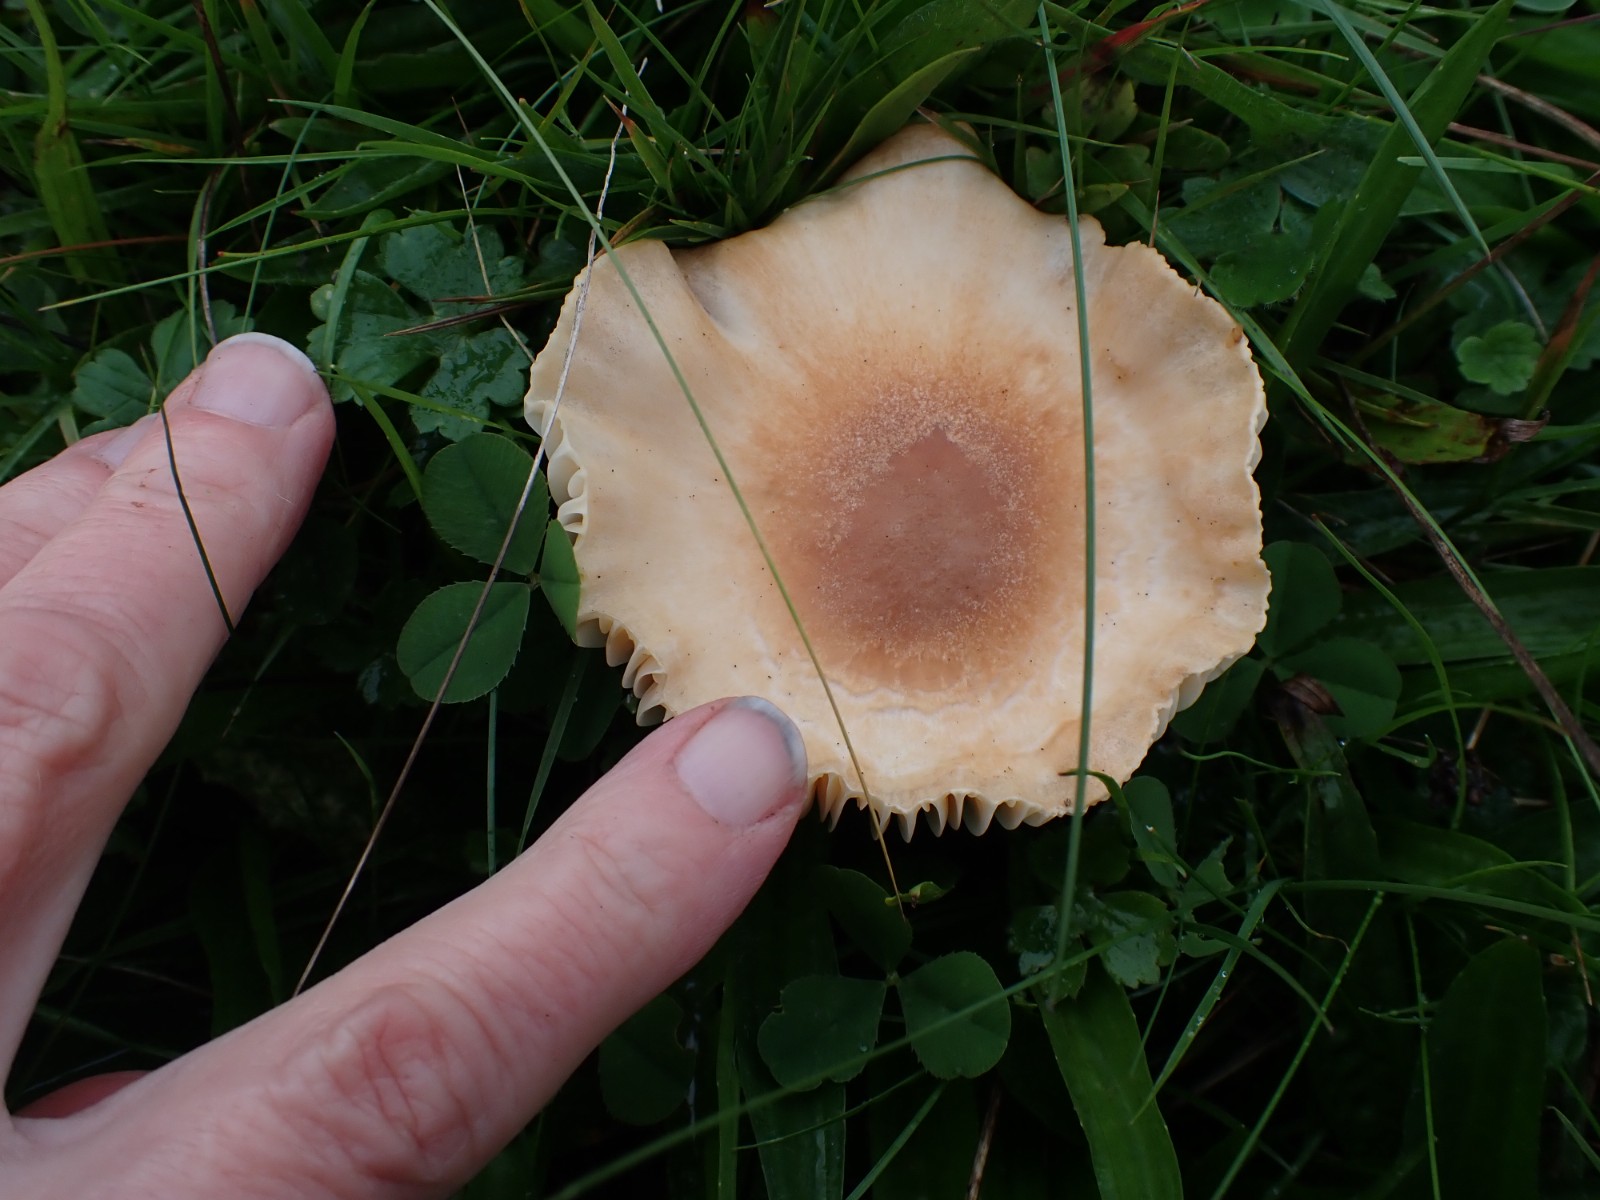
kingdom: Fungi
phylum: Basidiomycota
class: Agaricomycetes
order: Agaricales
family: Hygrophoraceae
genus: Cuphophyllus
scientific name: Cuphophyllus pratensis
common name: eng-vokshat
